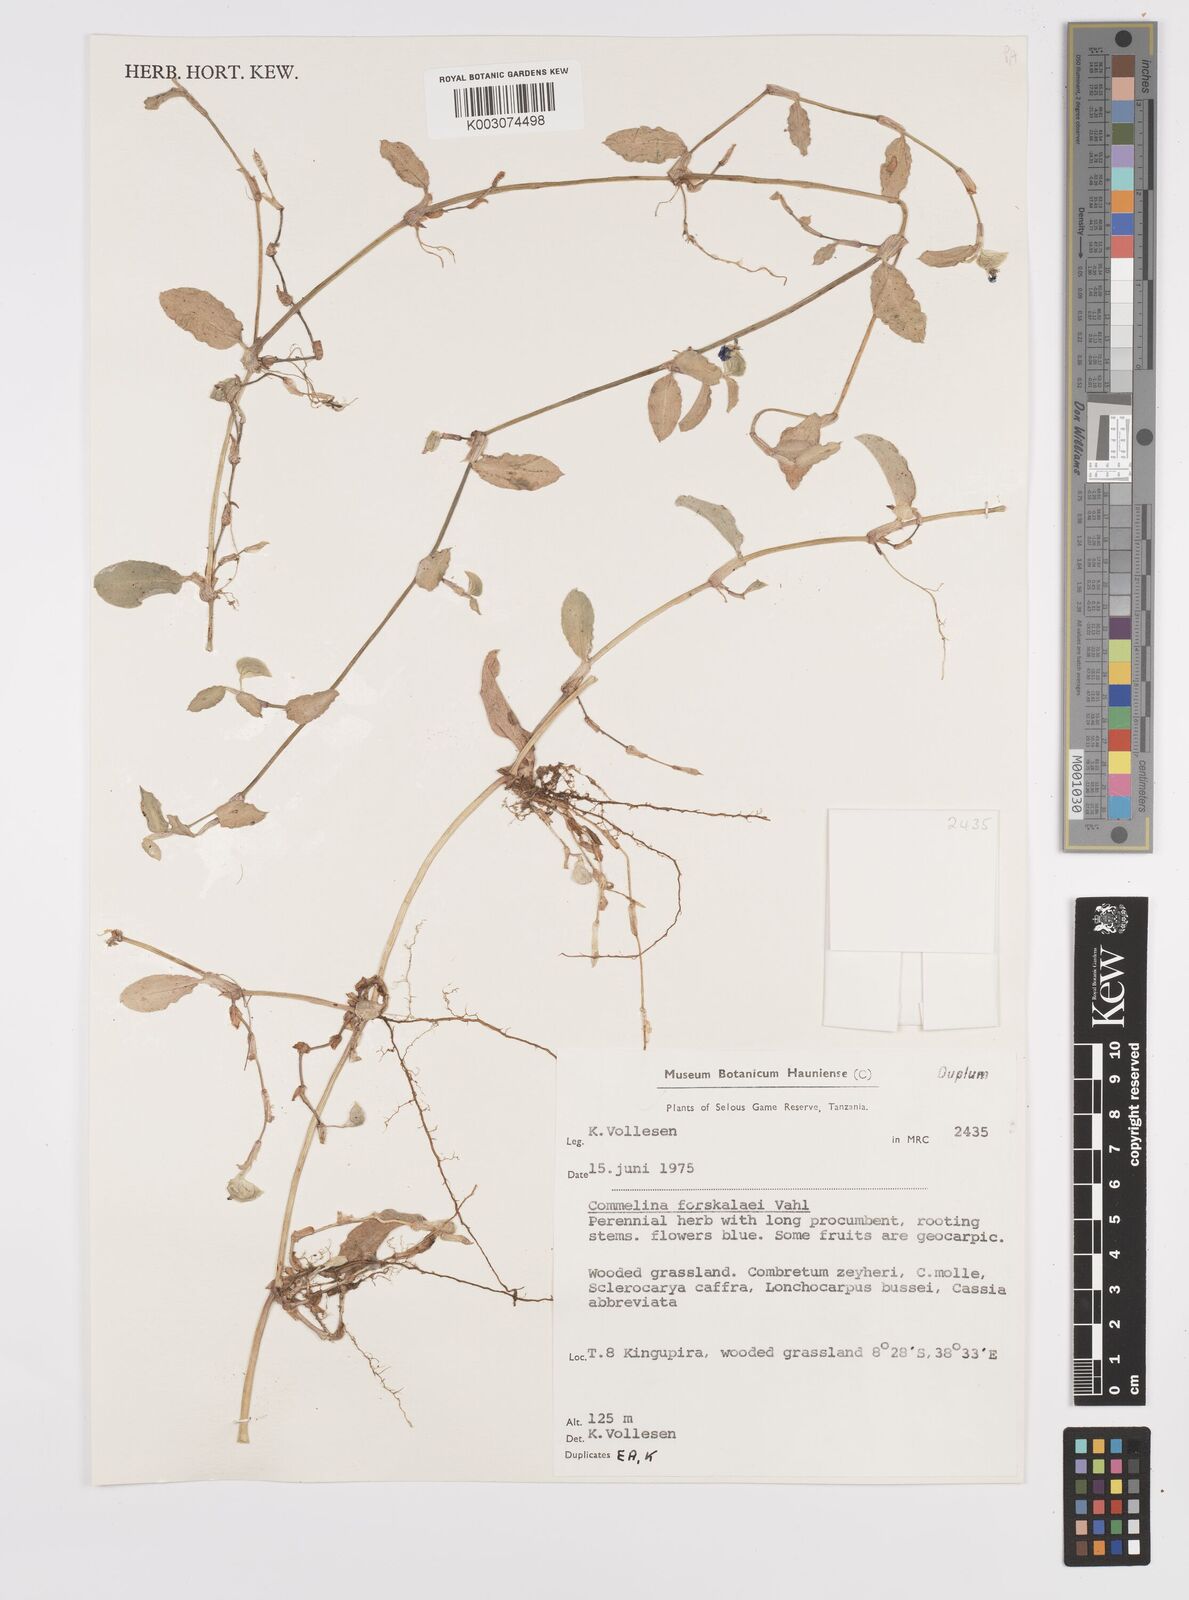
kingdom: Plantae
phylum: Tracheophyta
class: Liliopsida
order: Commelinales
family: Commelinaceae
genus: Commelina
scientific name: Commelina
